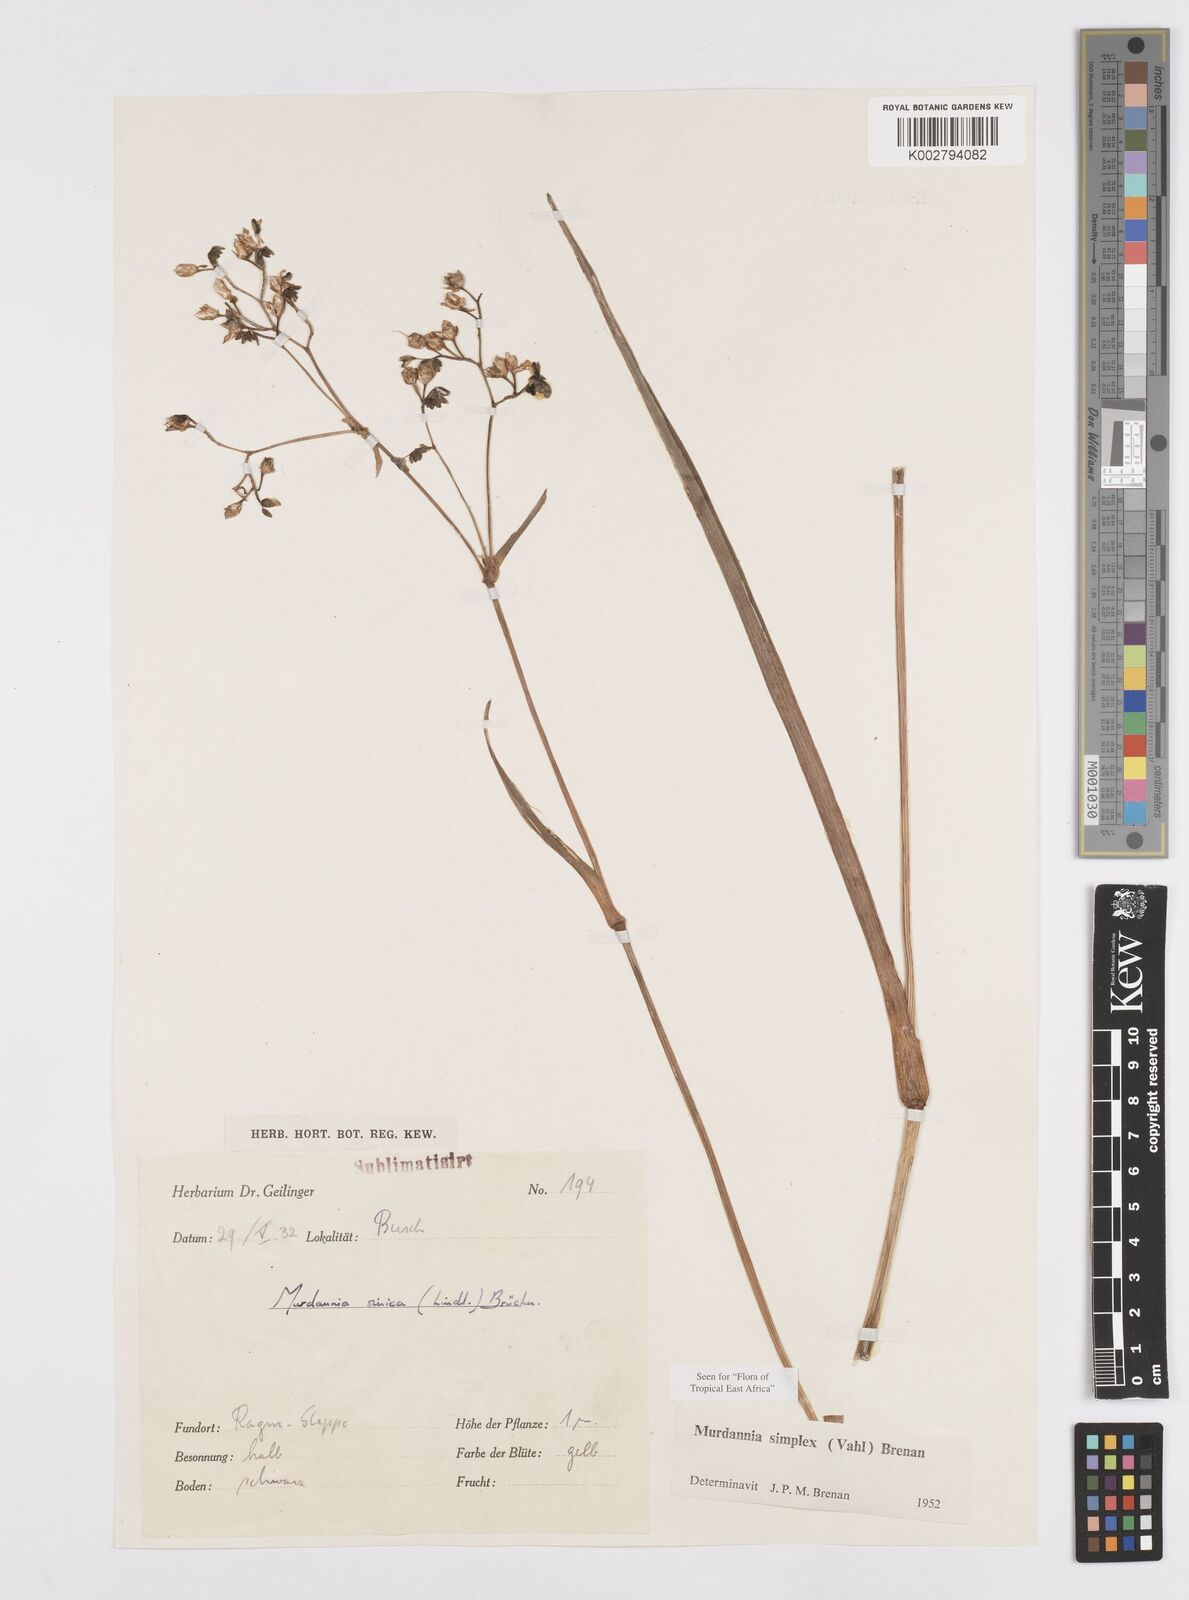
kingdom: Plantae
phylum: Tracheophyta
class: Liliopsida
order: Commelinales
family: Commelinaceae
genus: Murdannia
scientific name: Murdannia simplex
